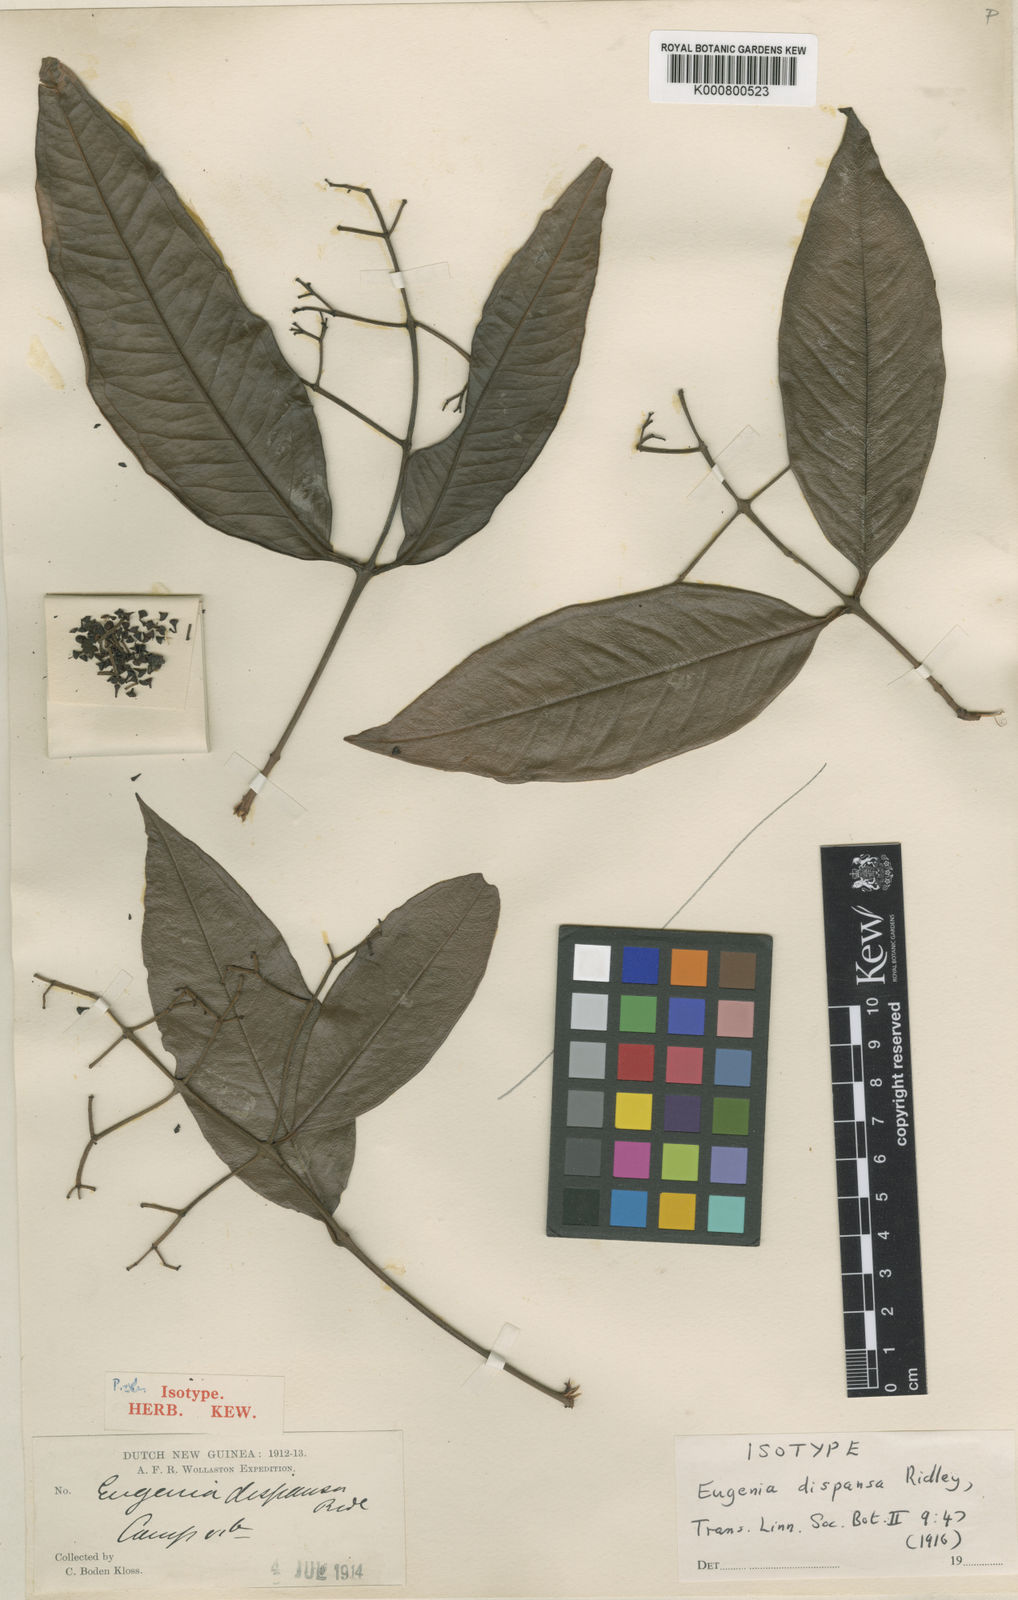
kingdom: Plantae
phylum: Tracheophyta
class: Magnoliopsida
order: Myrtales
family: Myrtaceae
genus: Syzygium
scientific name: Syzygium dispansum
